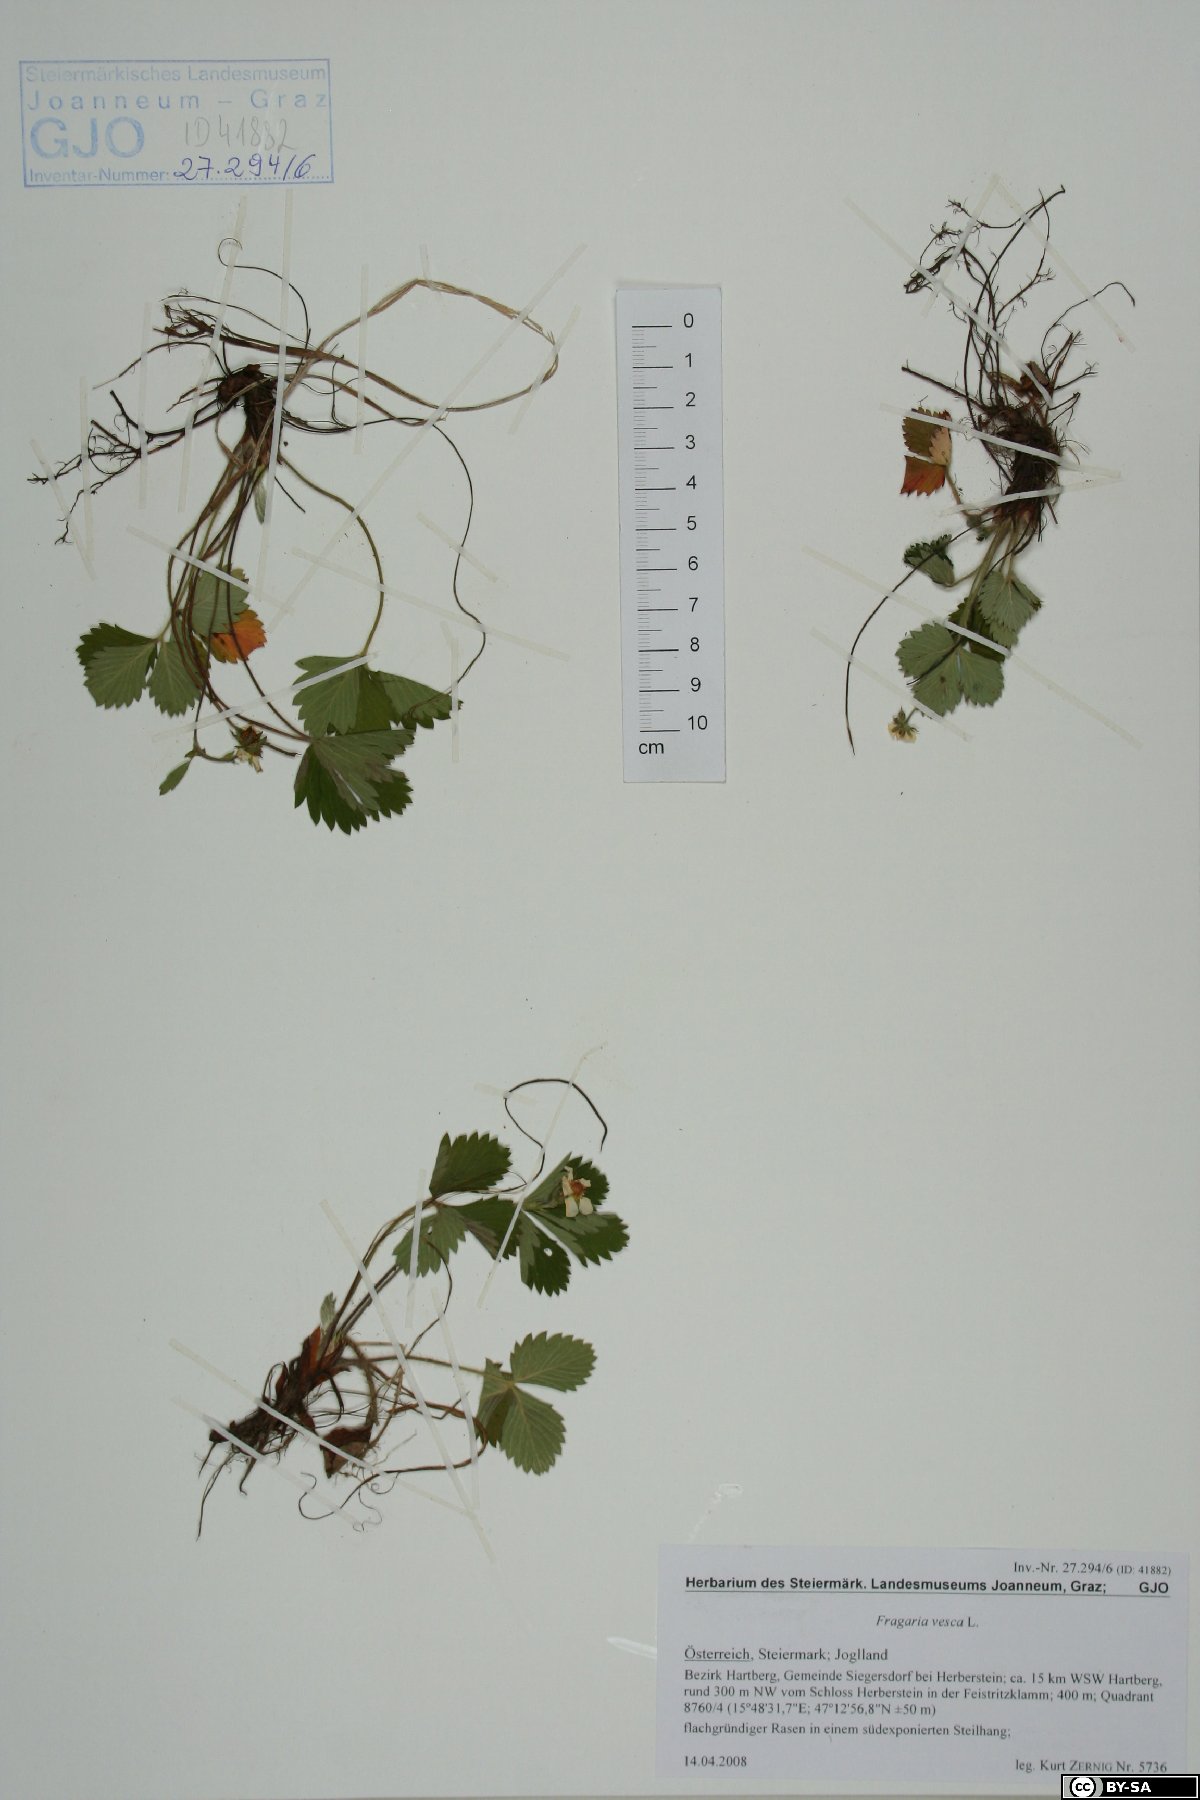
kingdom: Plantae
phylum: Bryophyta
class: Bryopsida
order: Hypnales
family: Brachytheciaceae
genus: Brachythecium
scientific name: Brachythecium rutabulum
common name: Rough-stalked feather-moss
